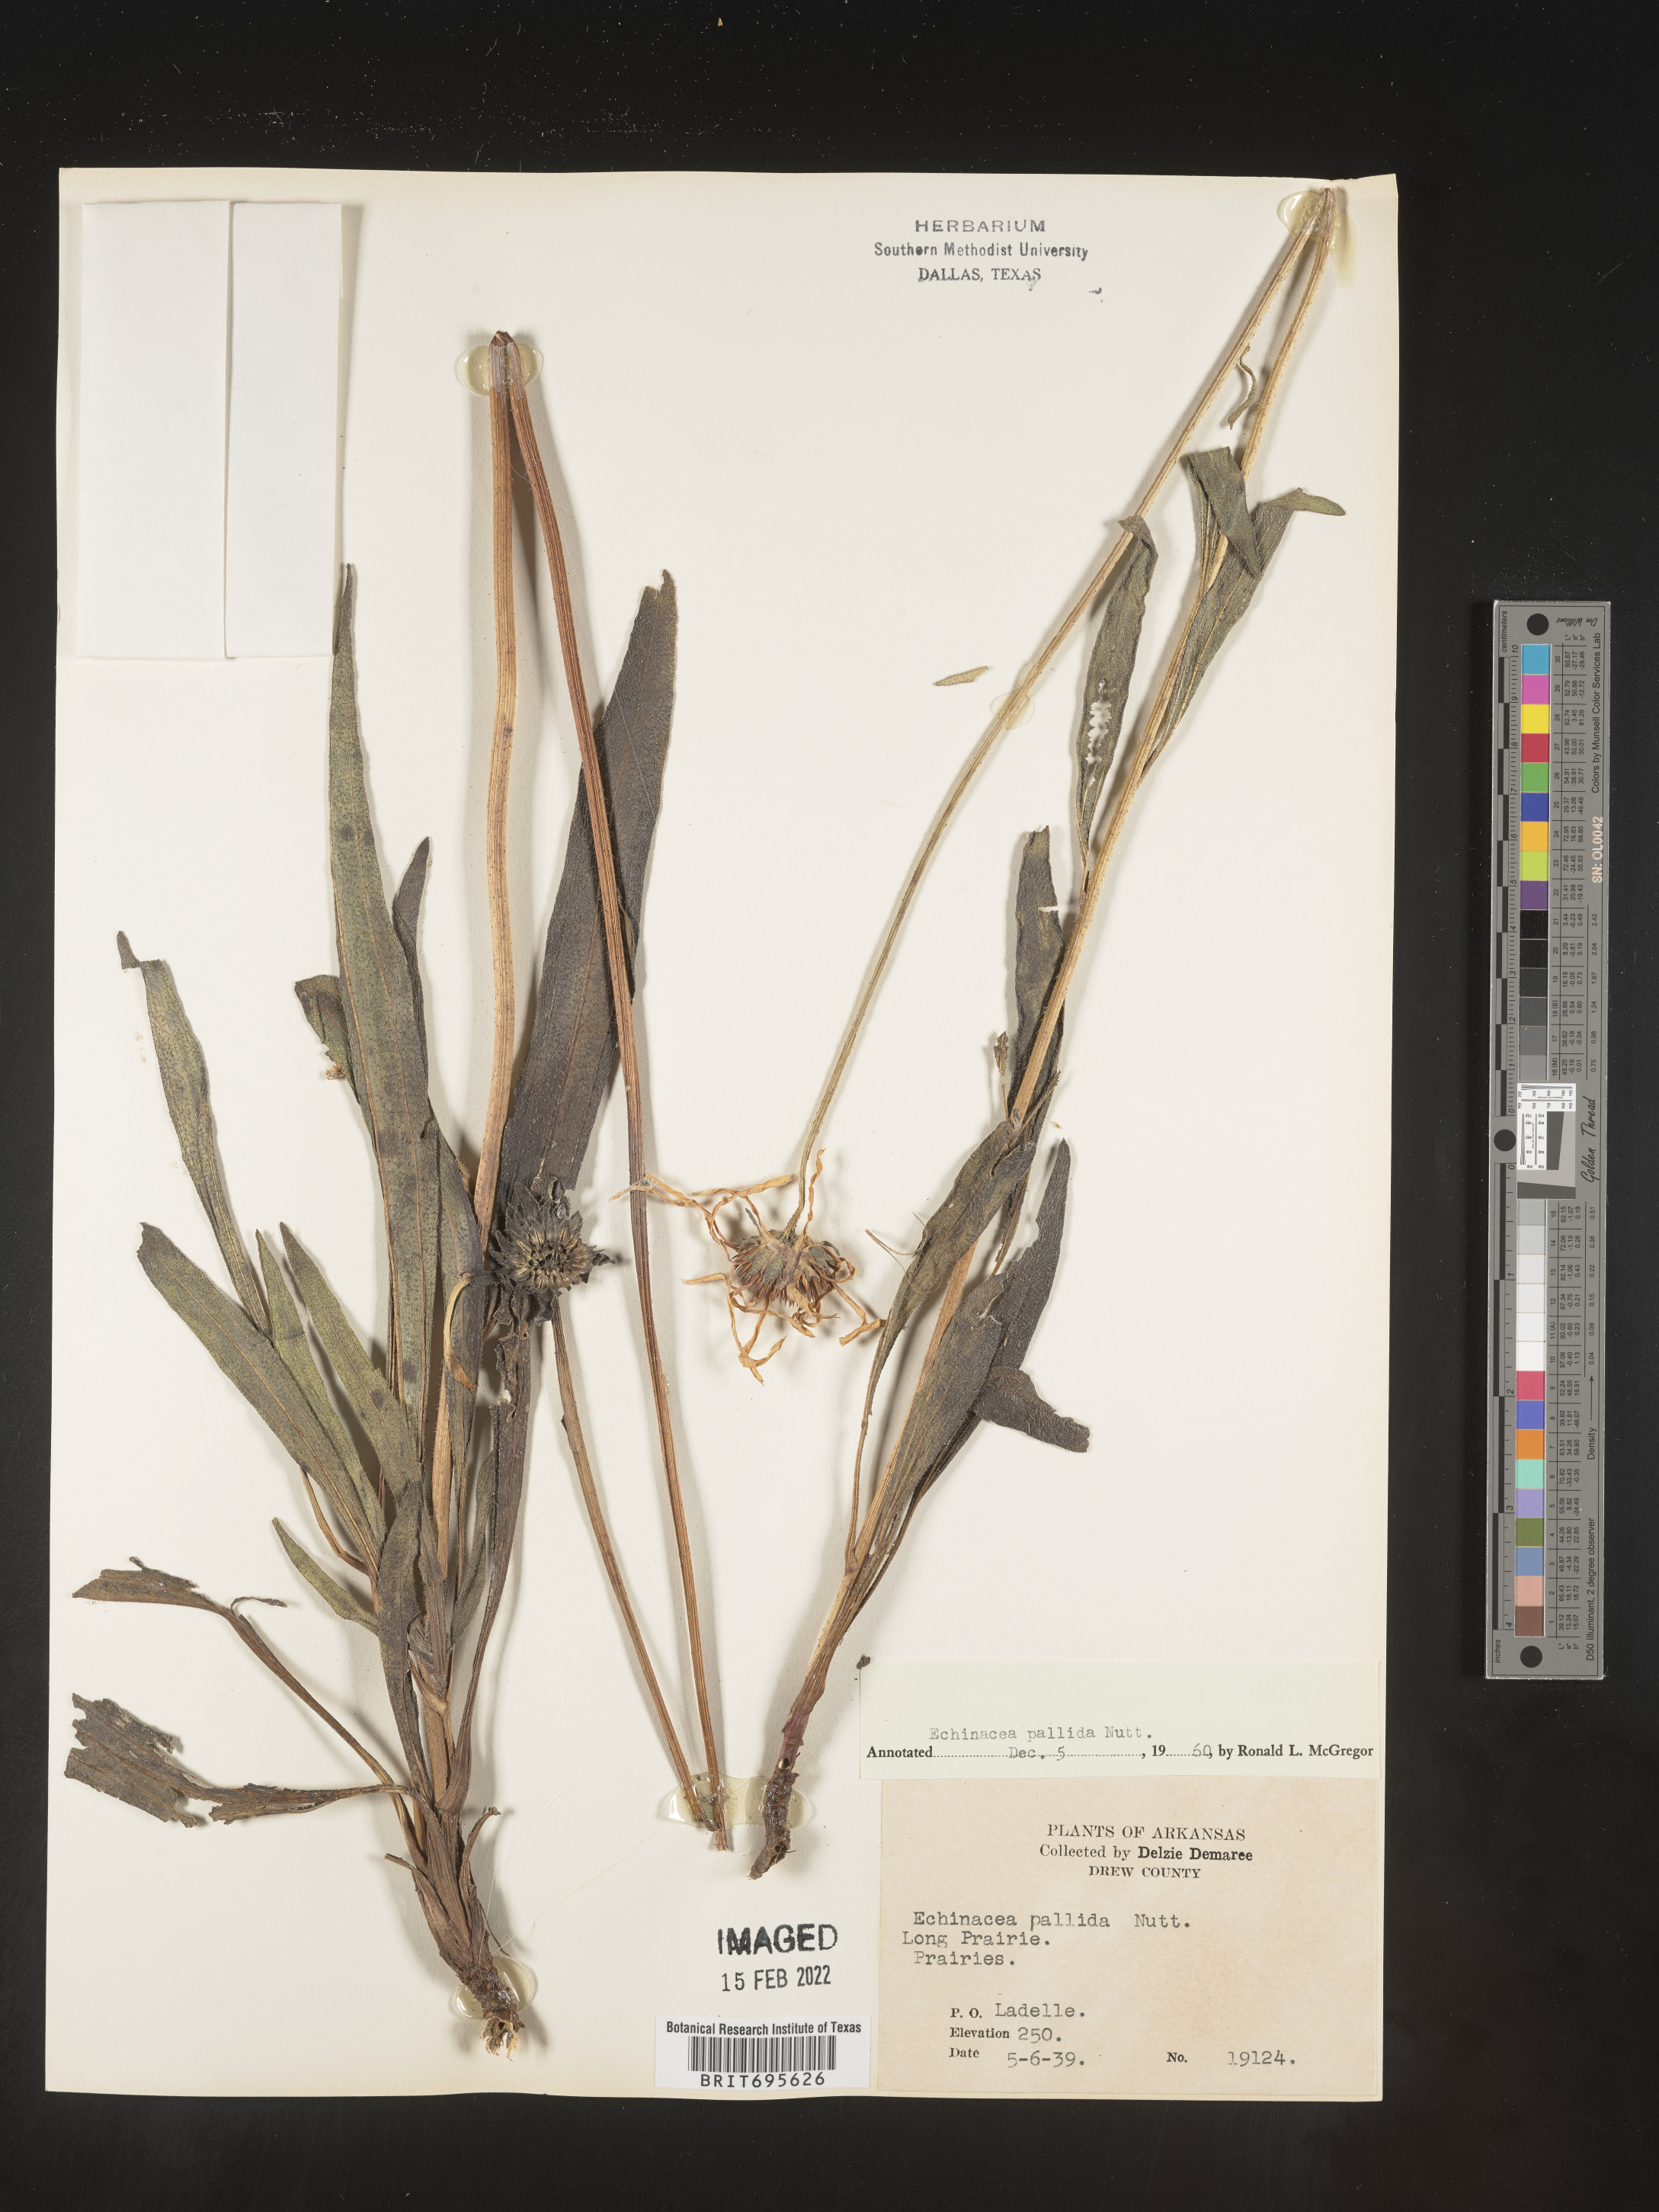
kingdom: Plantae
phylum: Tracheophyta
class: Magnoliopsida
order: Asterales
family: Asteraceae
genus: Echinacea
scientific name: Echinacea pallida
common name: Pale echinacea
